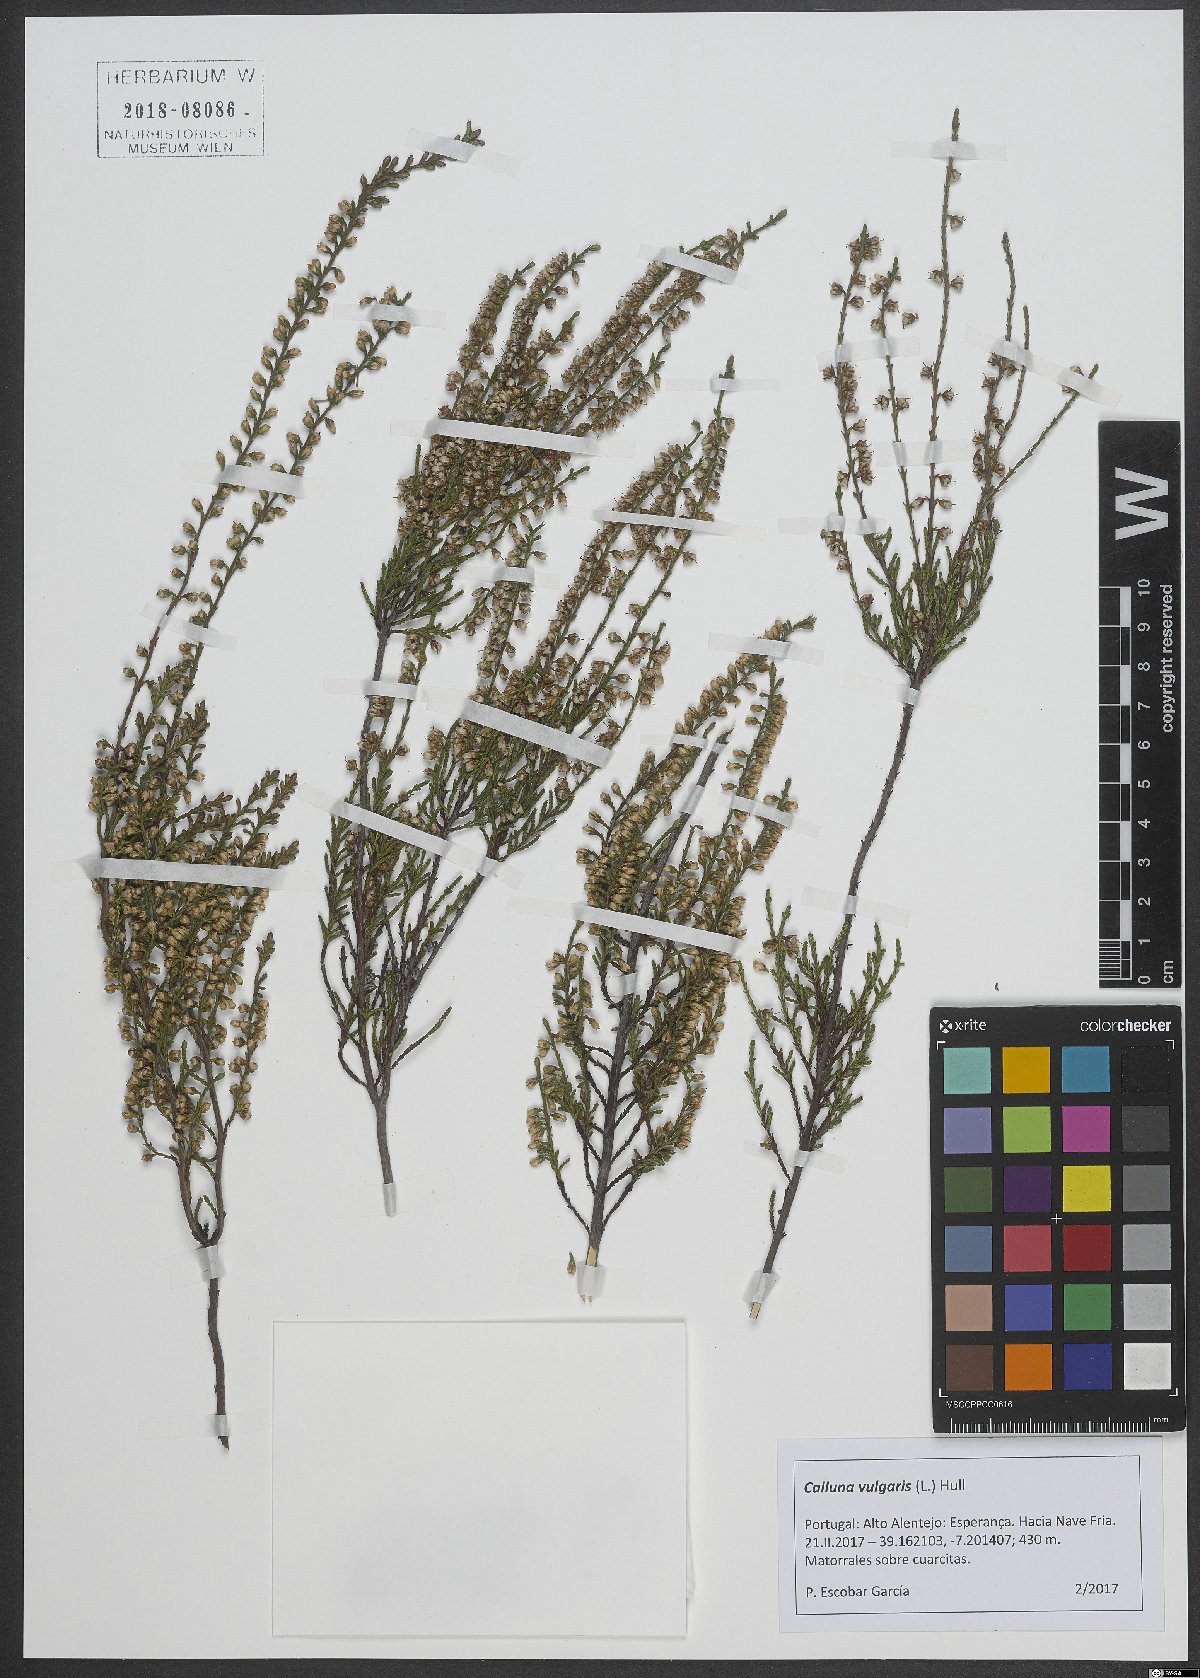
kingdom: Plantae
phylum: Tracheophyta
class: Magnoliopsida
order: Ericales
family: Ericaceae
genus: Calluna
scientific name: Calluna vulgaris
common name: Heather
